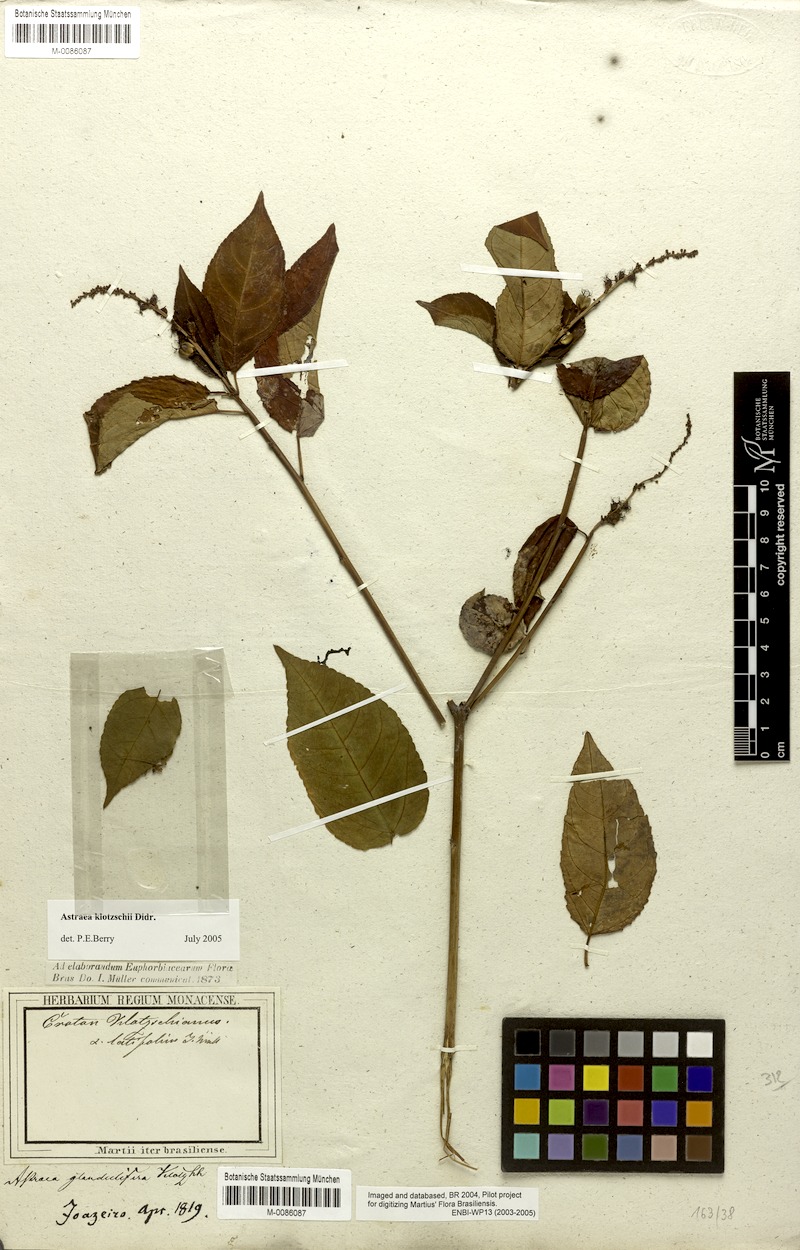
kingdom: Plantae
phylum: Tracheophyta
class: Magnoliopsida
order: Malpighiales
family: Euphorbiaceae
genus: Astraea
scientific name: Astraea macroura
